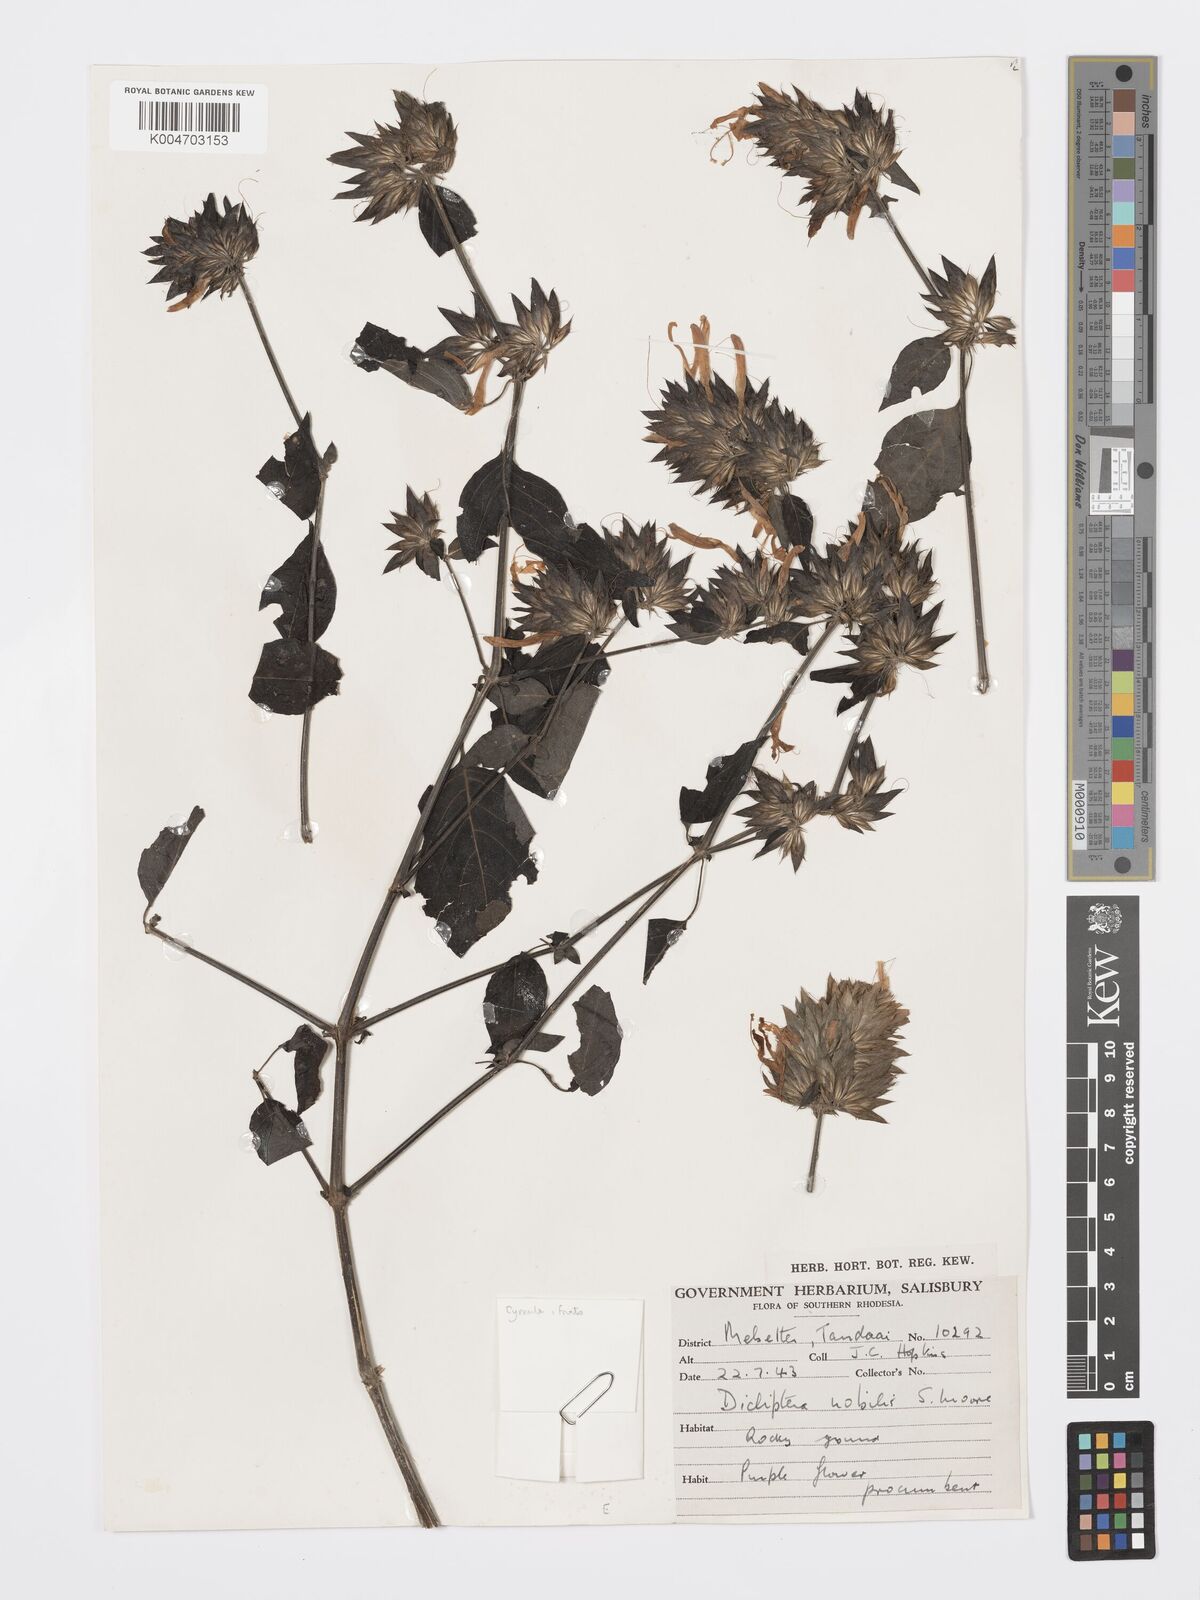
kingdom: Plantae
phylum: Tracheophyta
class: Magnoliopsida
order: Lamiales
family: Acanthaceae
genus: Dicliptera
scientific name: Dicliptera clinopodia
